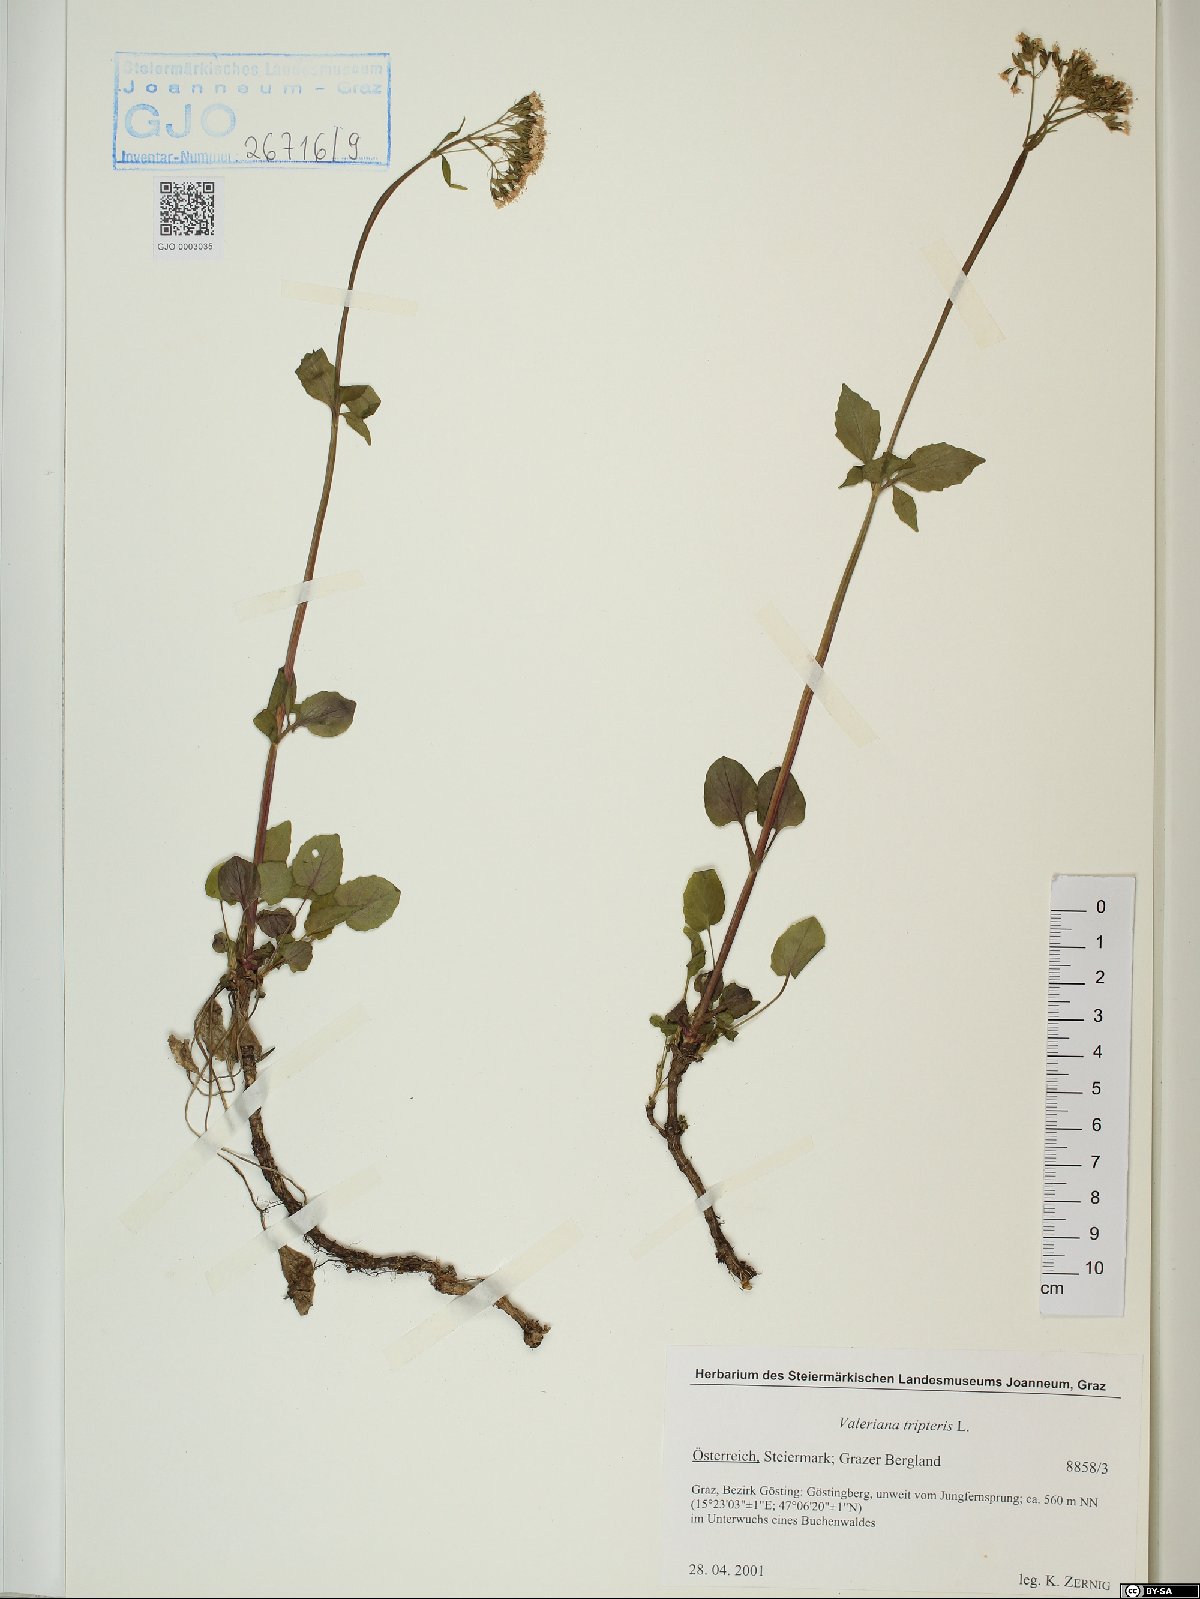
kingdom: Plantae
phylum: Tracheophyta
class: Magnoliopsida
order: Dipsacales
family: Caprifoliaceae
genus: Valeriana
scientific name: Valeriana tripteris
